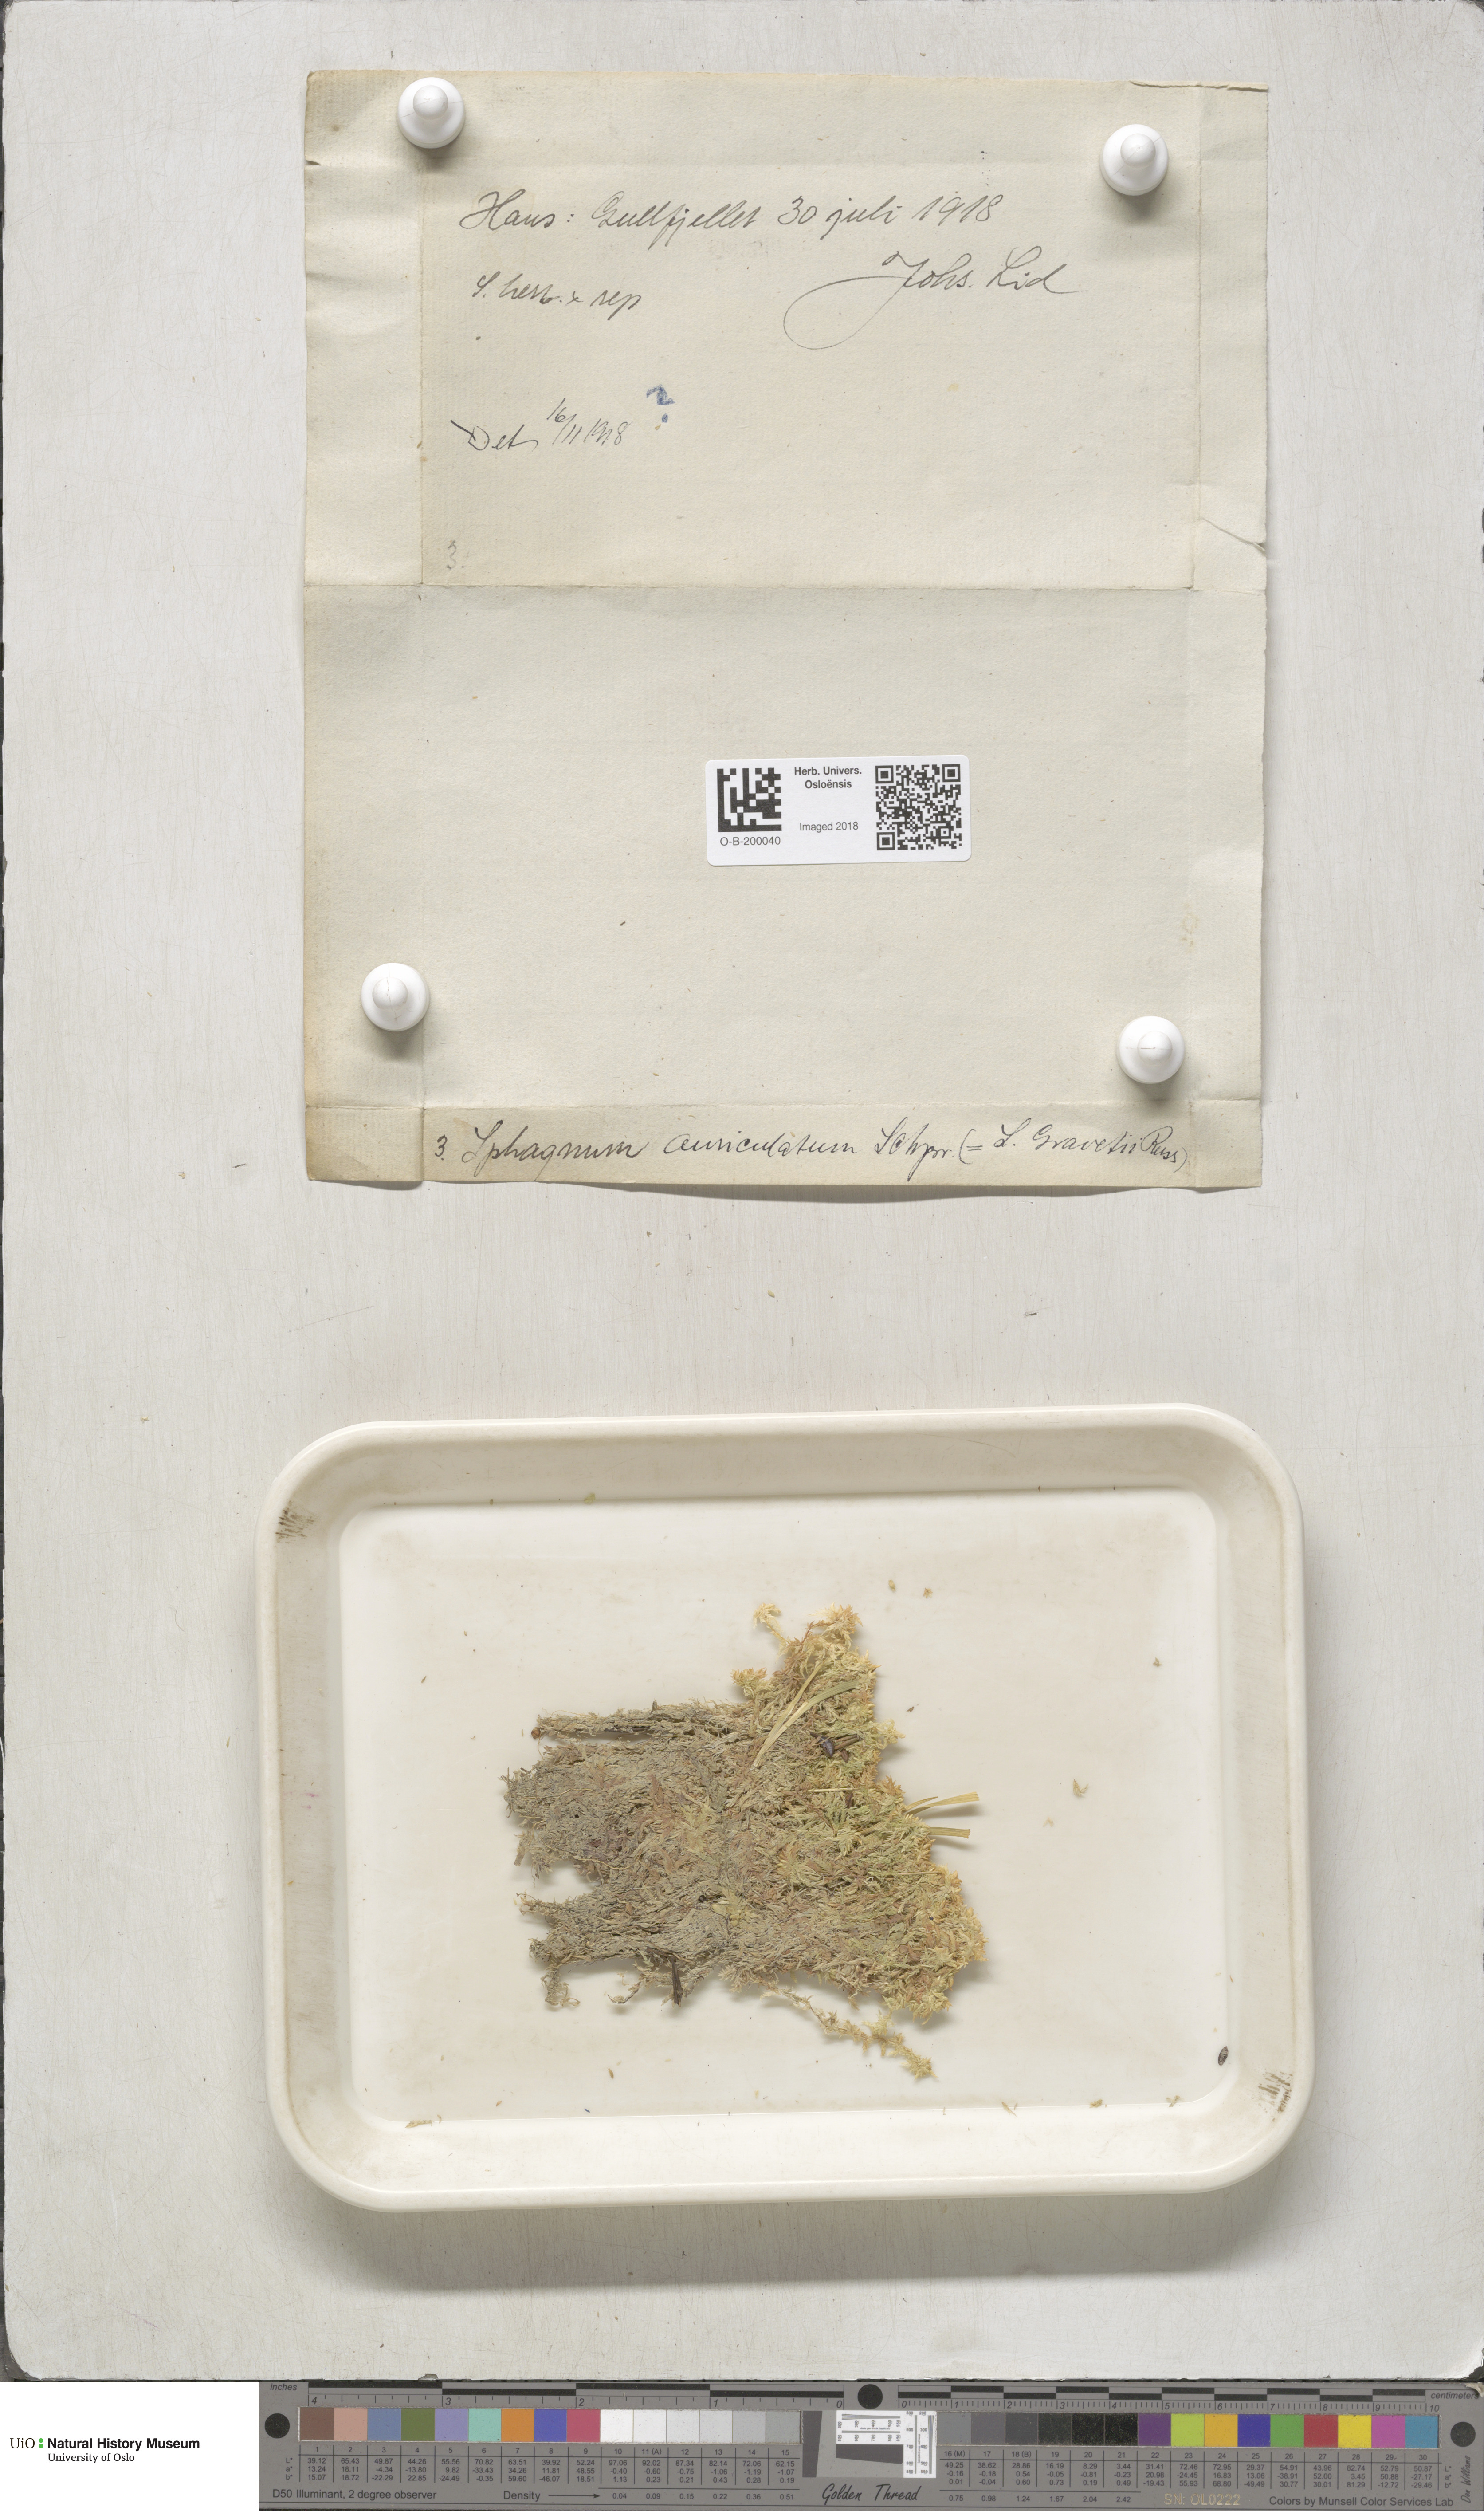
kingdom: Plantae
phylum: Bryophyta
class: Sphagnopsida
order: Sphagnales
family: Sphagnaceae
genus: Sphagnum
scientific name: Sphagnum denticulatum
